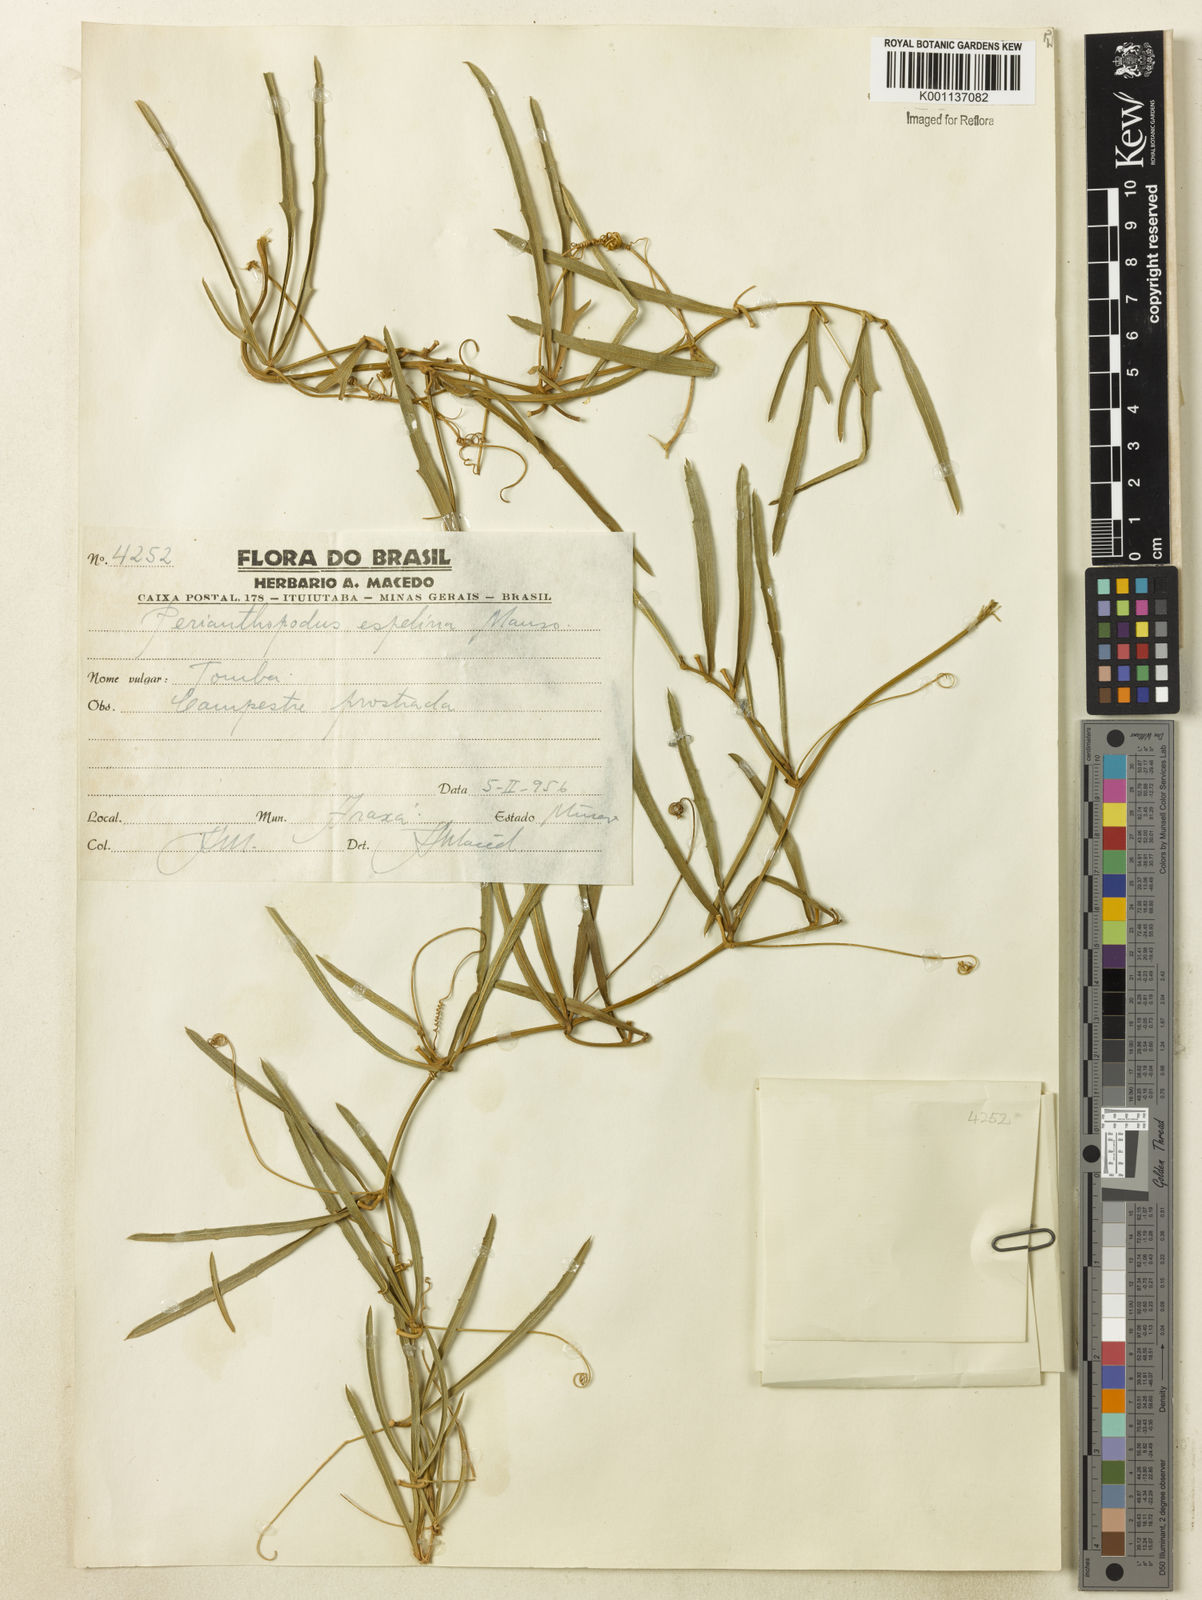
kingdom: Plantae
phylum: Tracheophyta
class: Magnoliopsida
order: Cucurbitales
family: Cucurbitaceae
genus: Cayaponia
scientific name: Cayaponia espelina
